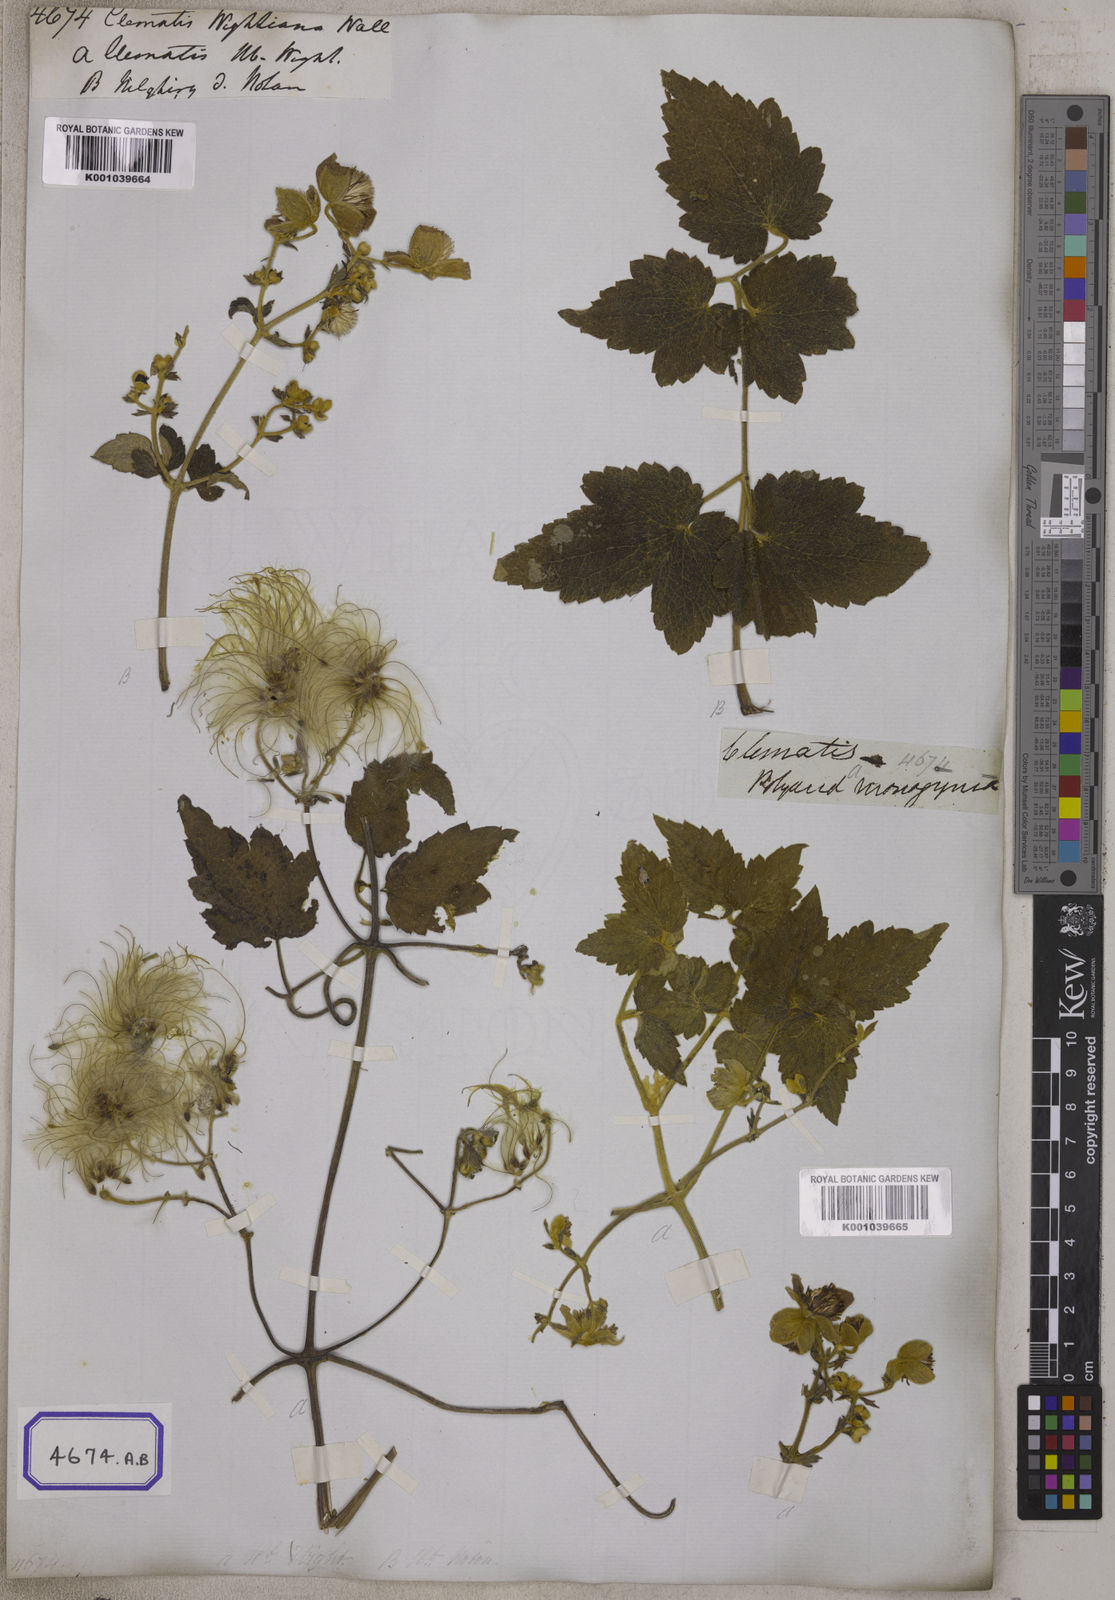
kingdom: Plantae
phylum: Tracheophyta
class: Magnoliopsida
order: Ranunculales
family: Ranunculaceae
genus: Clematis
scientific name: Clematis
